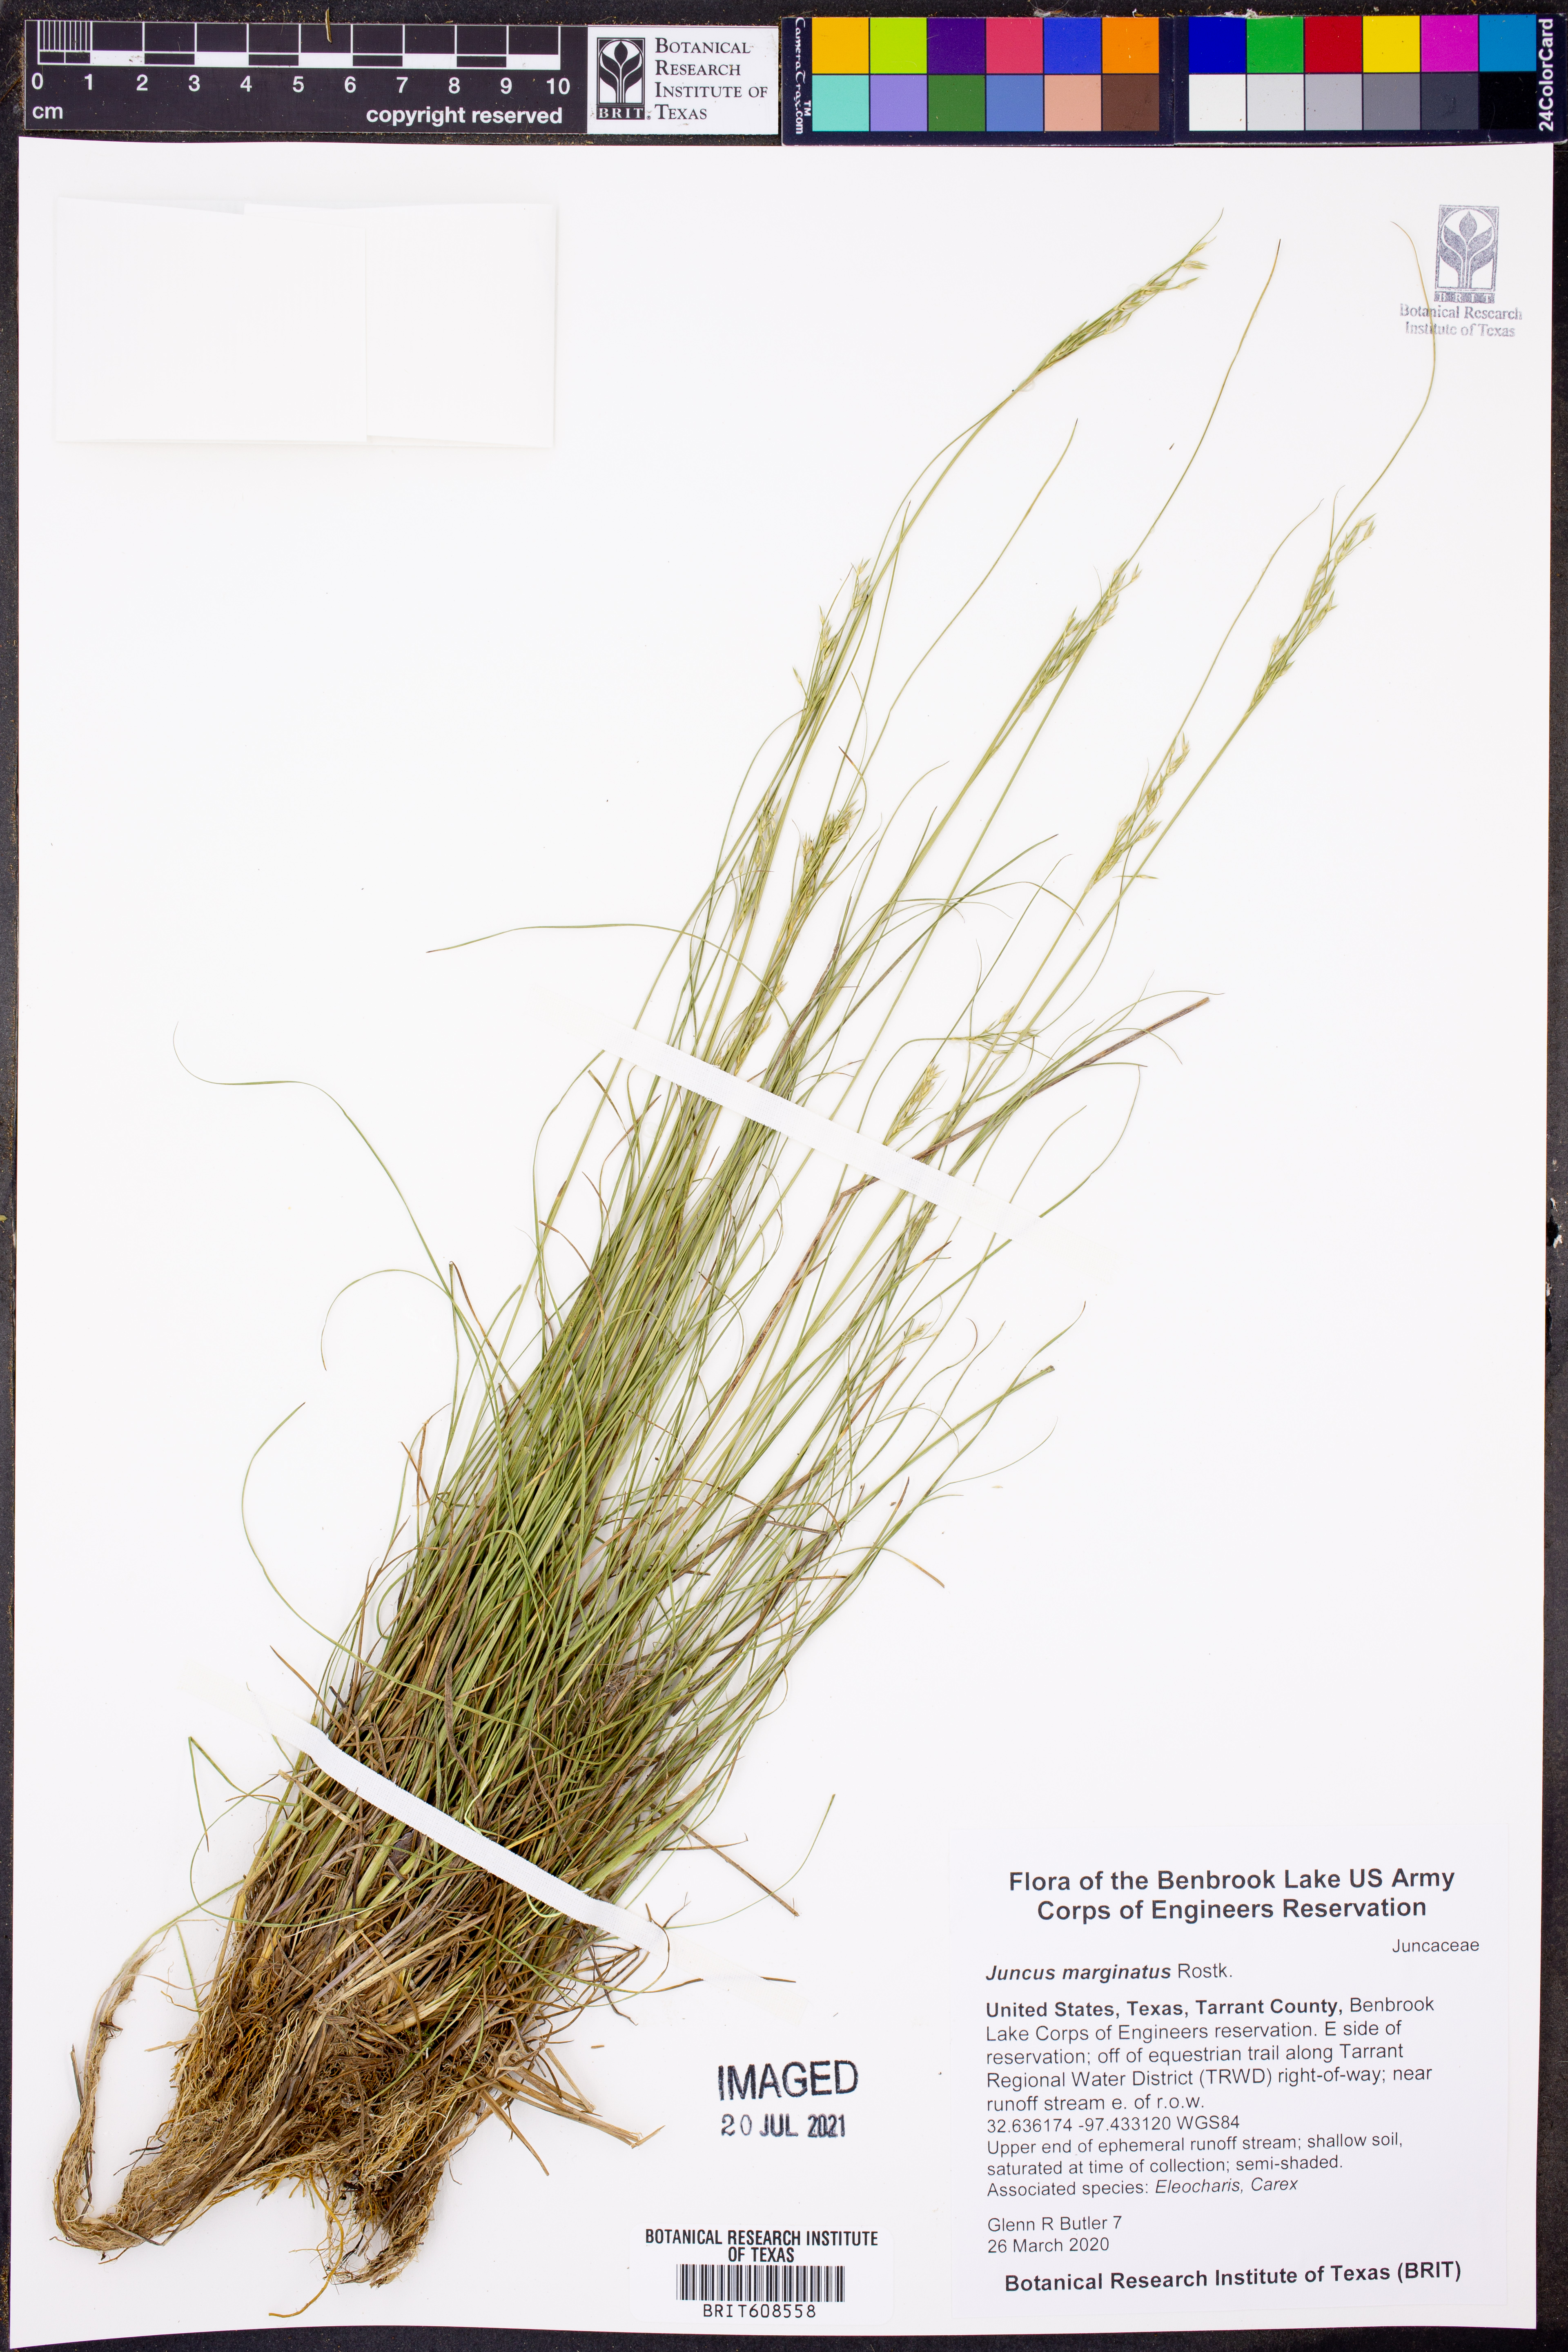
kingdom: Plantae
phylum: Tracheophyta
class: Liliopsida
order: Poales
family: Juncaceae
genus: Juncus
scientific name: Juncus marginatus
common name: Grass-leaf rush
